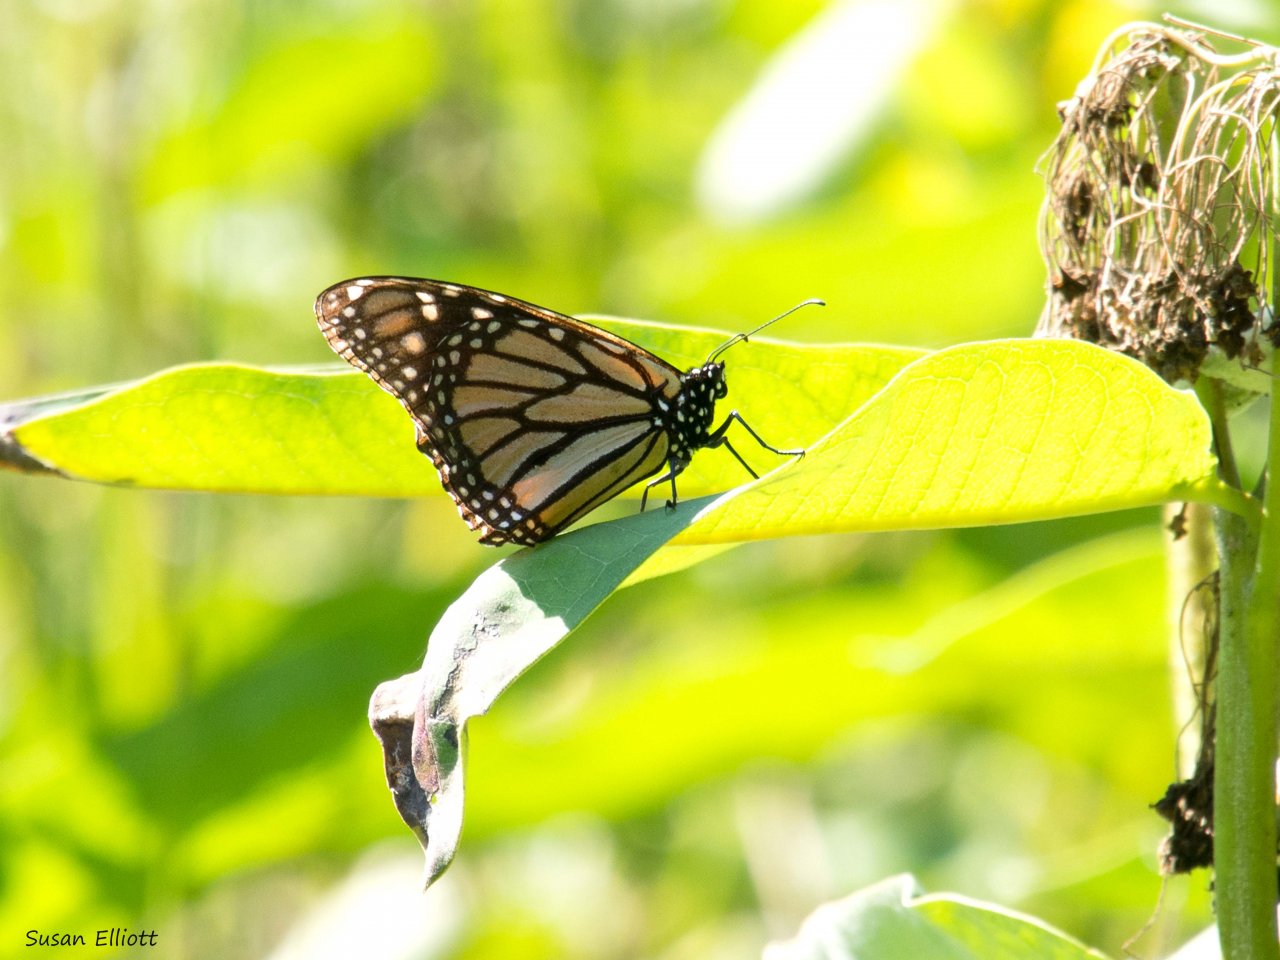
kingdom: Animalia
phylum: Arthropoda
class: Insecta
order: Lepidoptera
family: Nymphalidae
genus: Danaus
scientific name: Danaus plexippus
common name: Monarch
